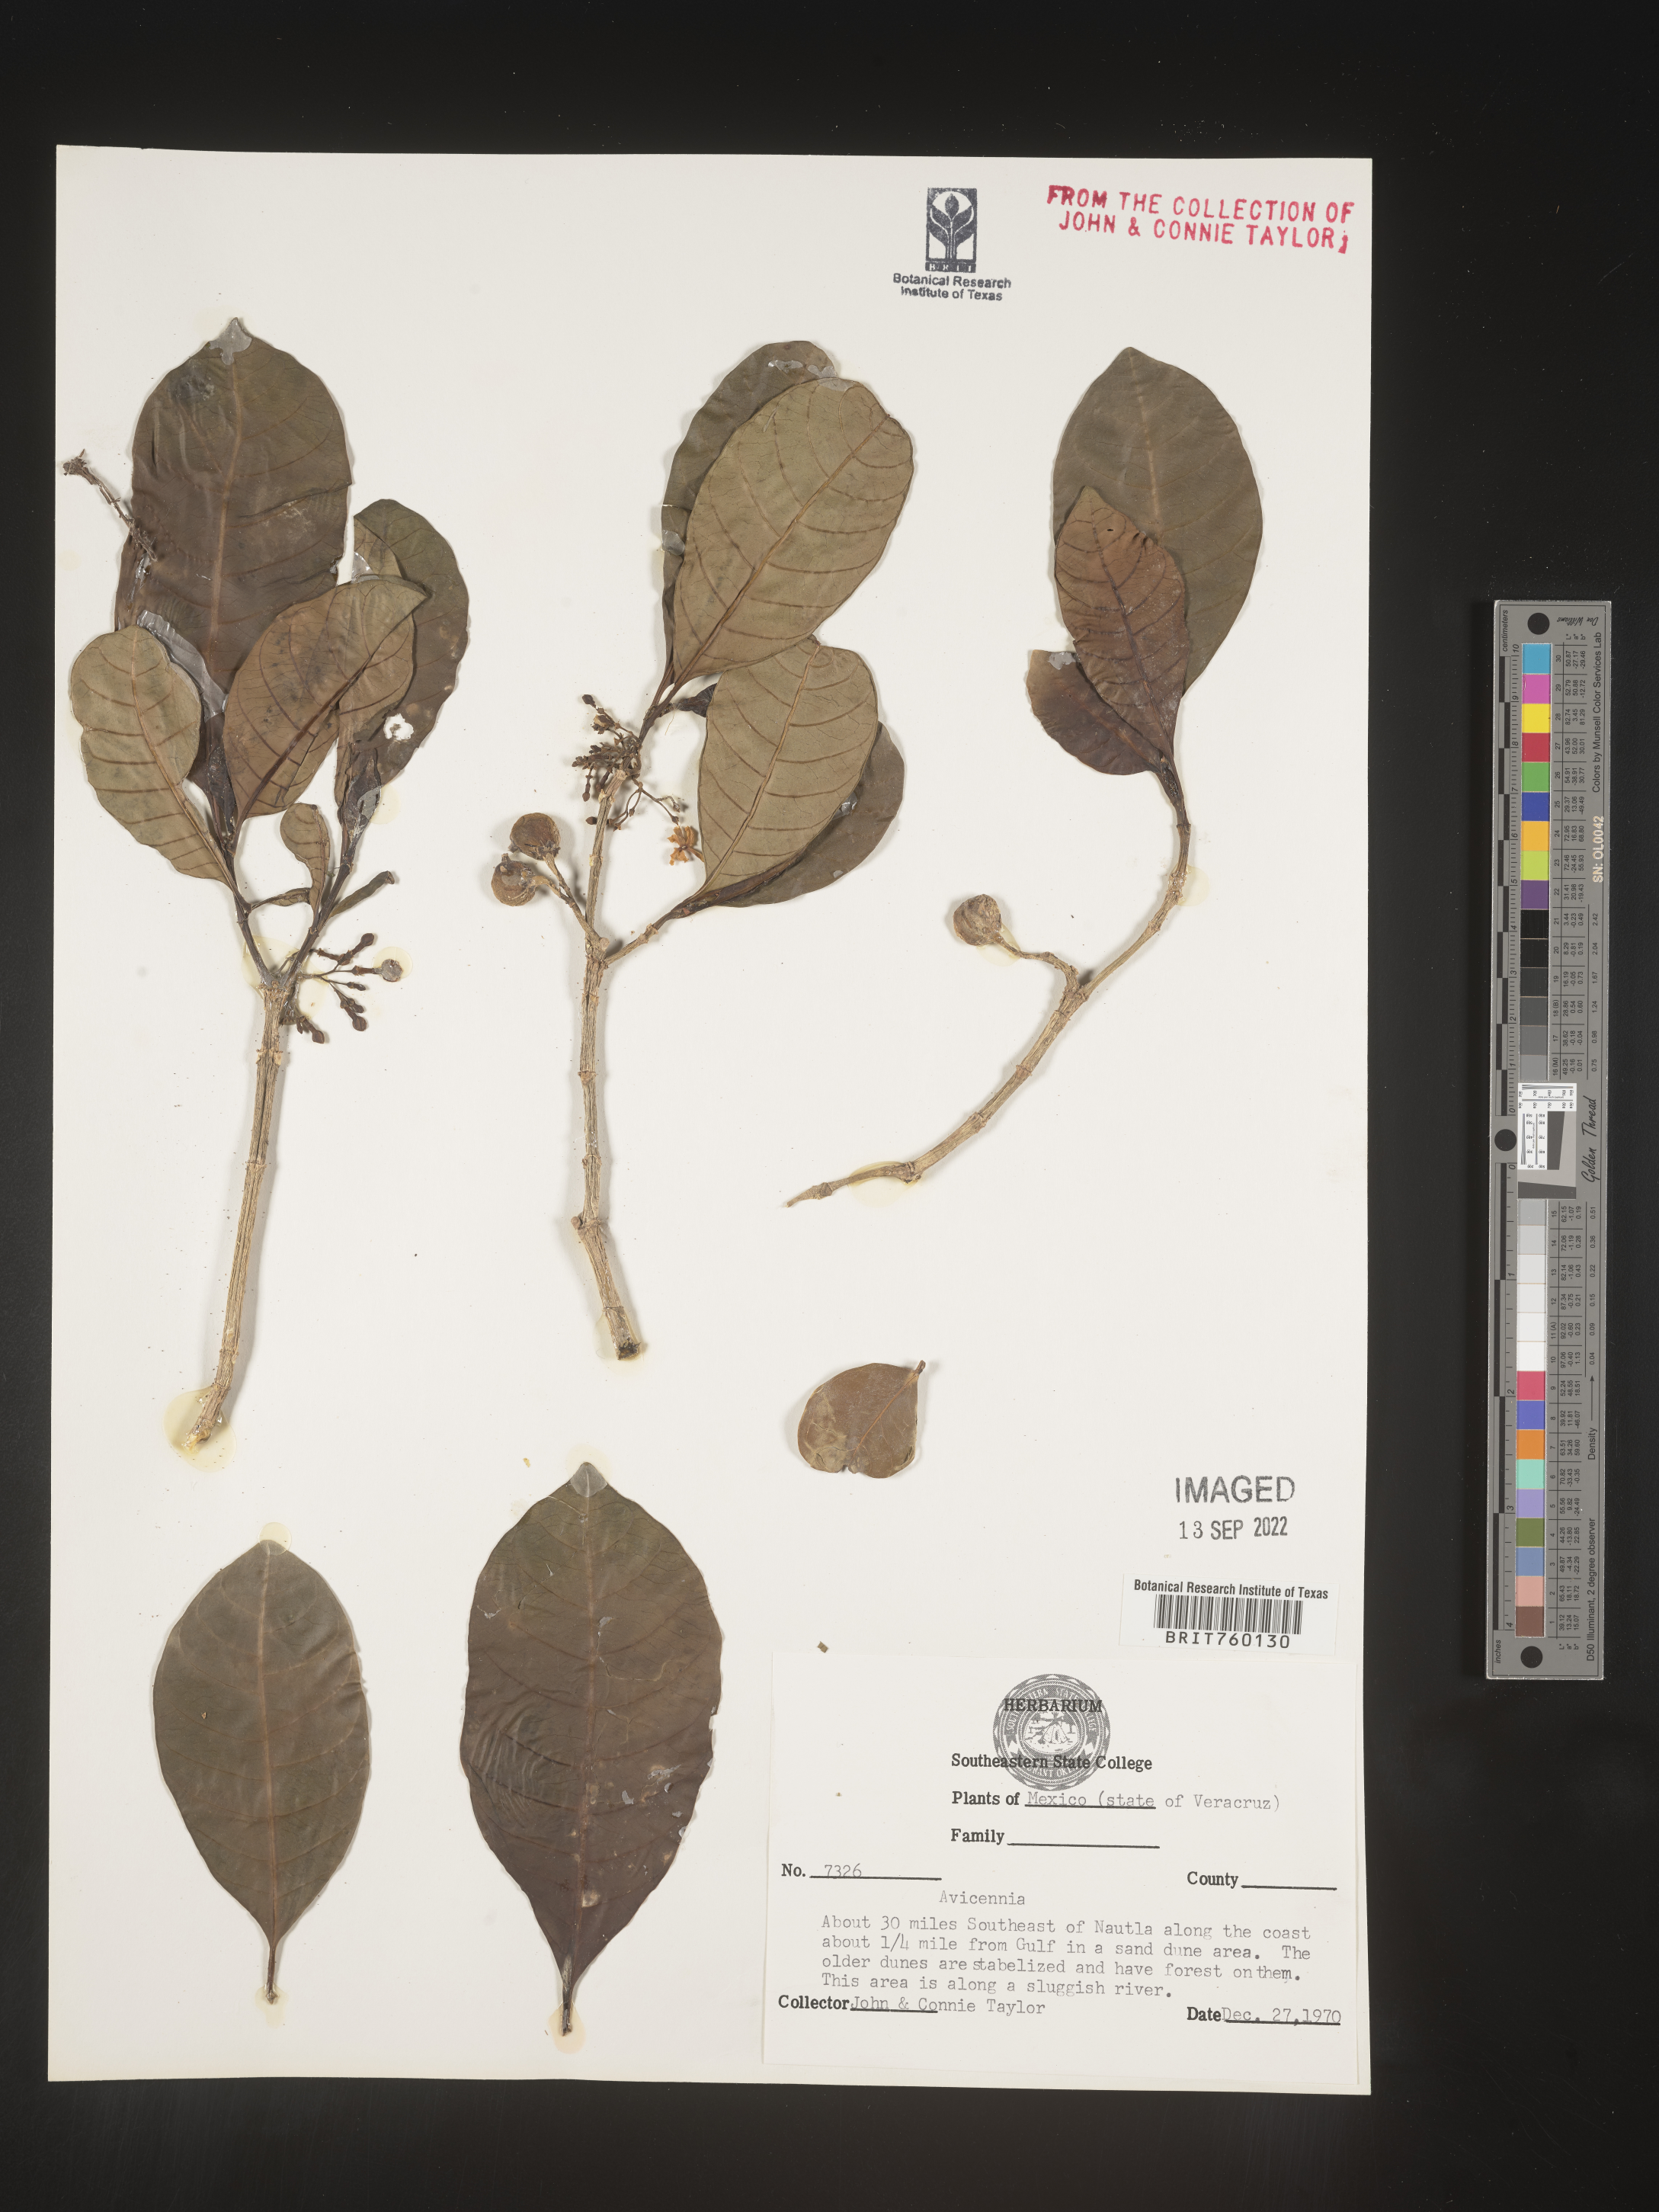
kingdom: Plantae
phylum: Tracheophyta
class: Magnoliopsida
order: Lamiales
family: Acanthaceae
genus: Avicennia
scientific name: Avicennia
